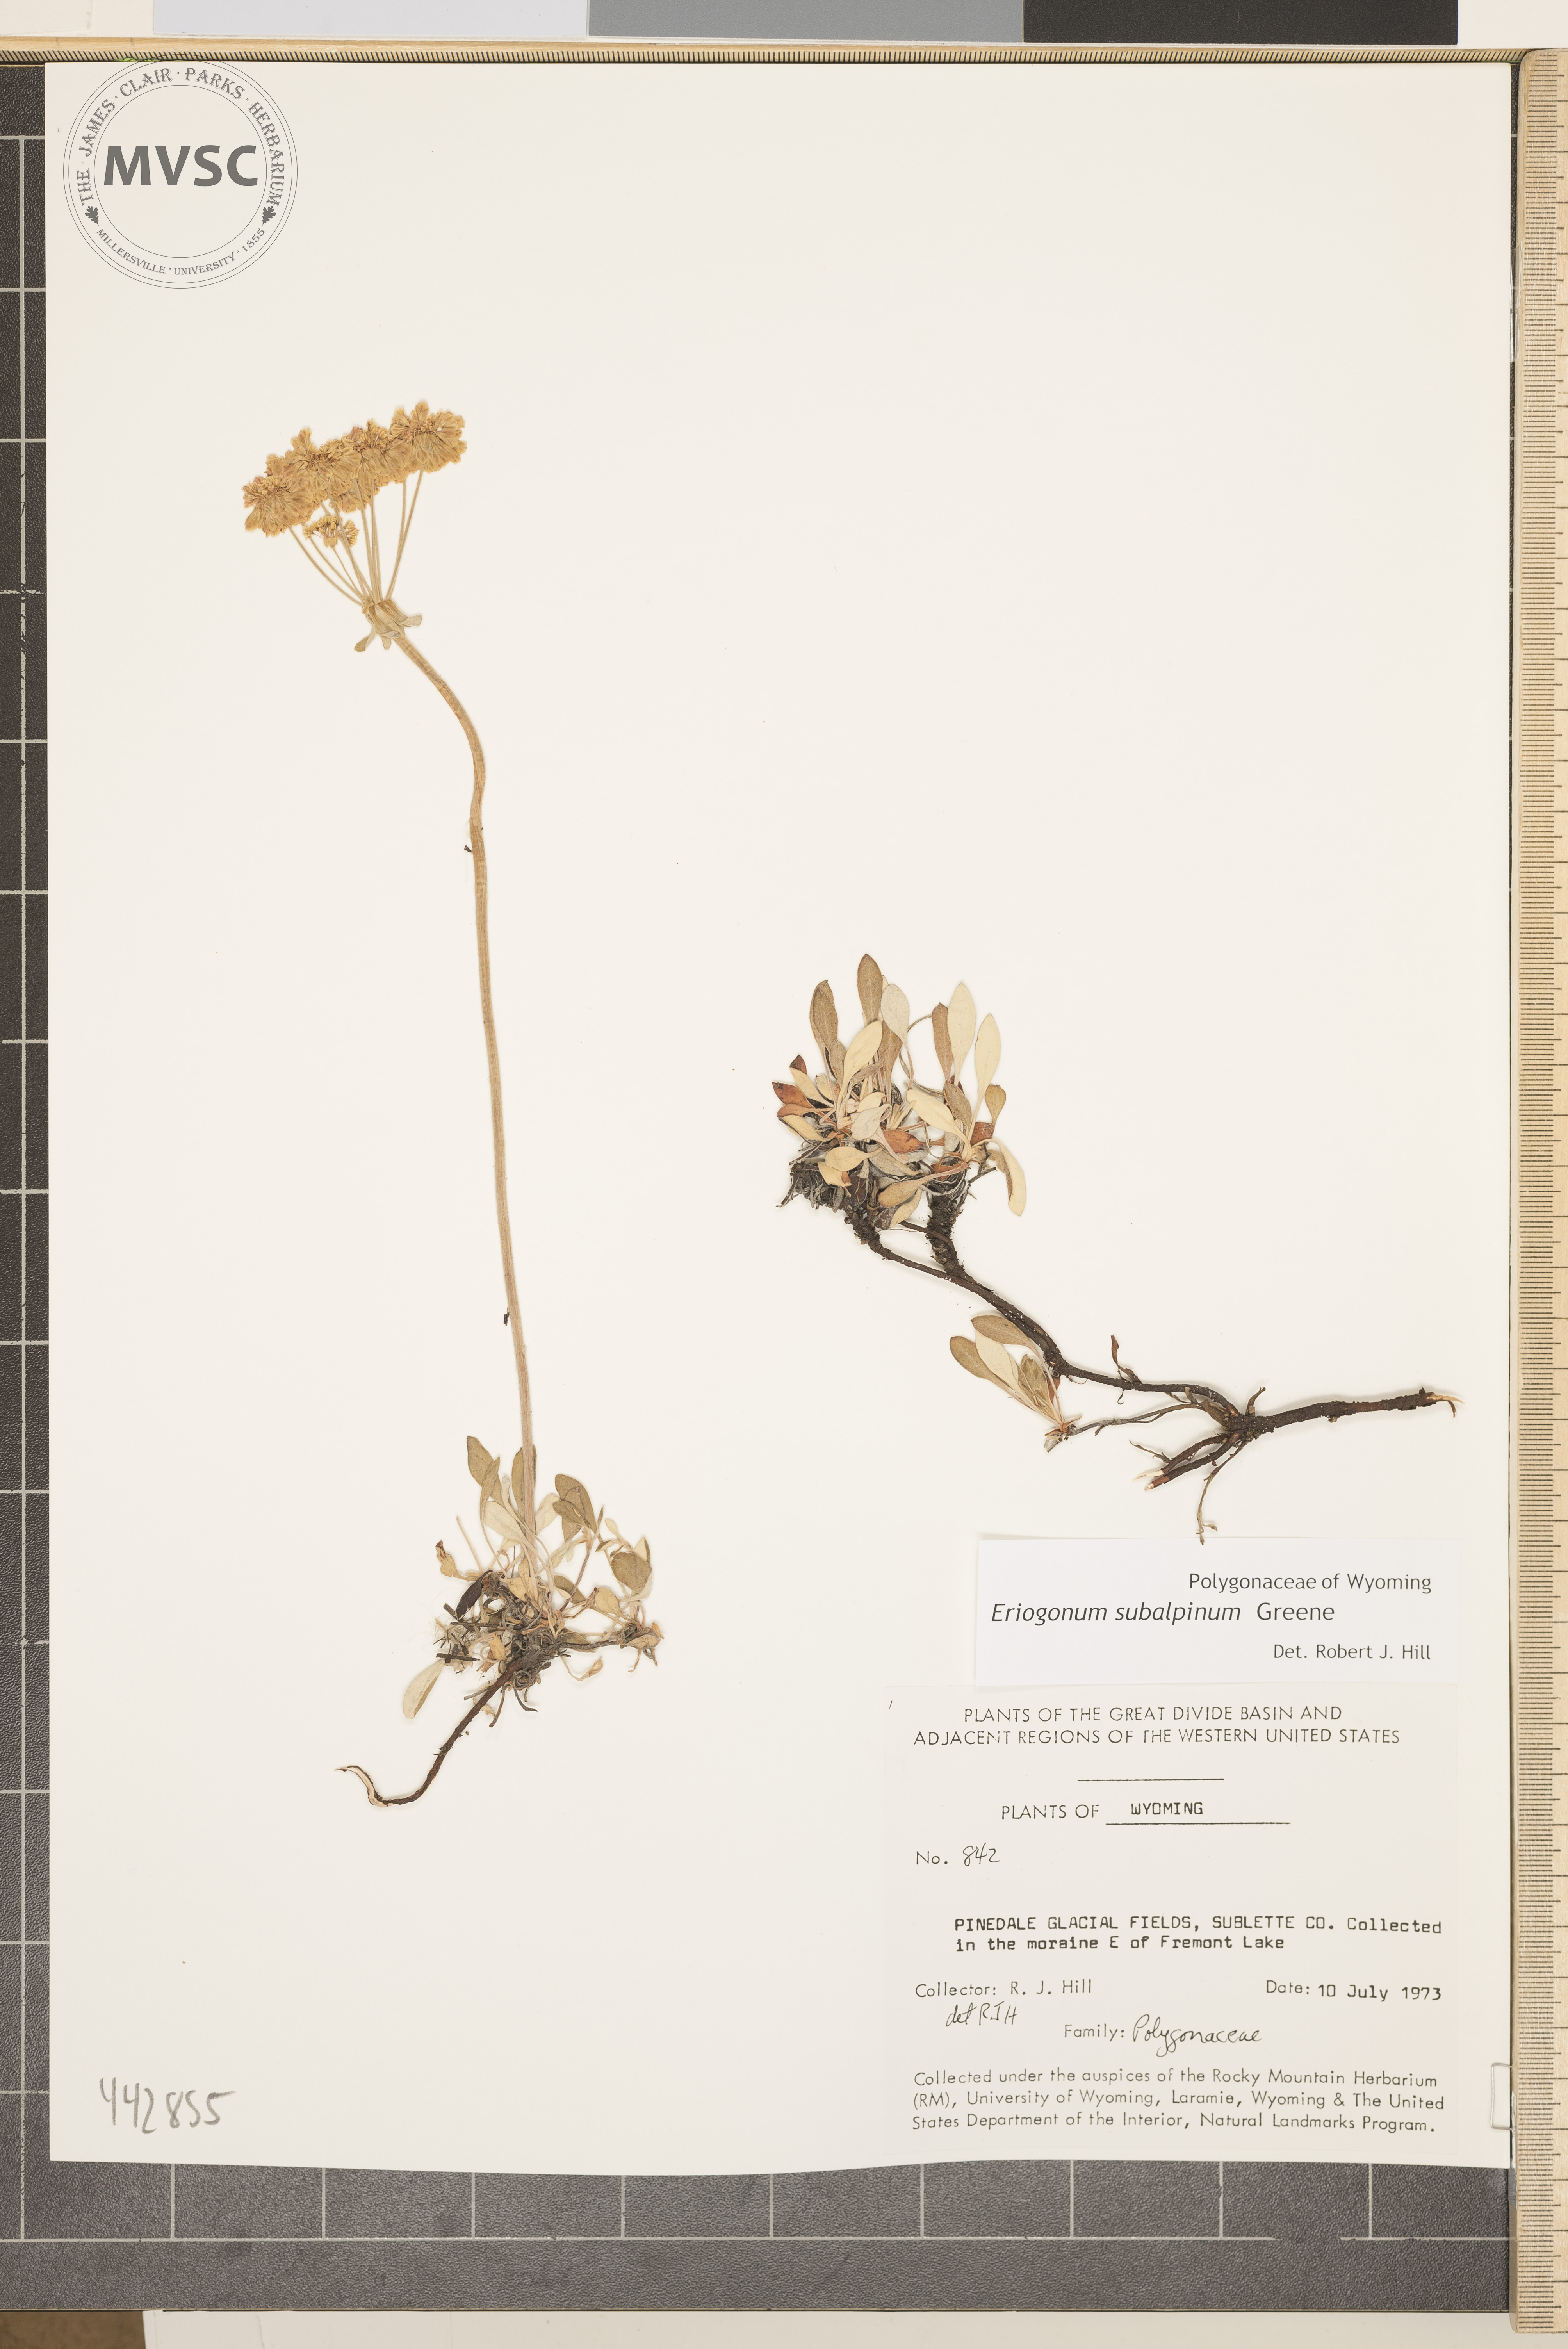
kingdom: Plantae
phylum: Tracheophyta
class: Magnoliopsida
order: Caryophyllales
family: Polygonaceae
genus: Eriogonum
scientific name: Eriogonum umbellatum
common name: Sulfur-buckwheat
